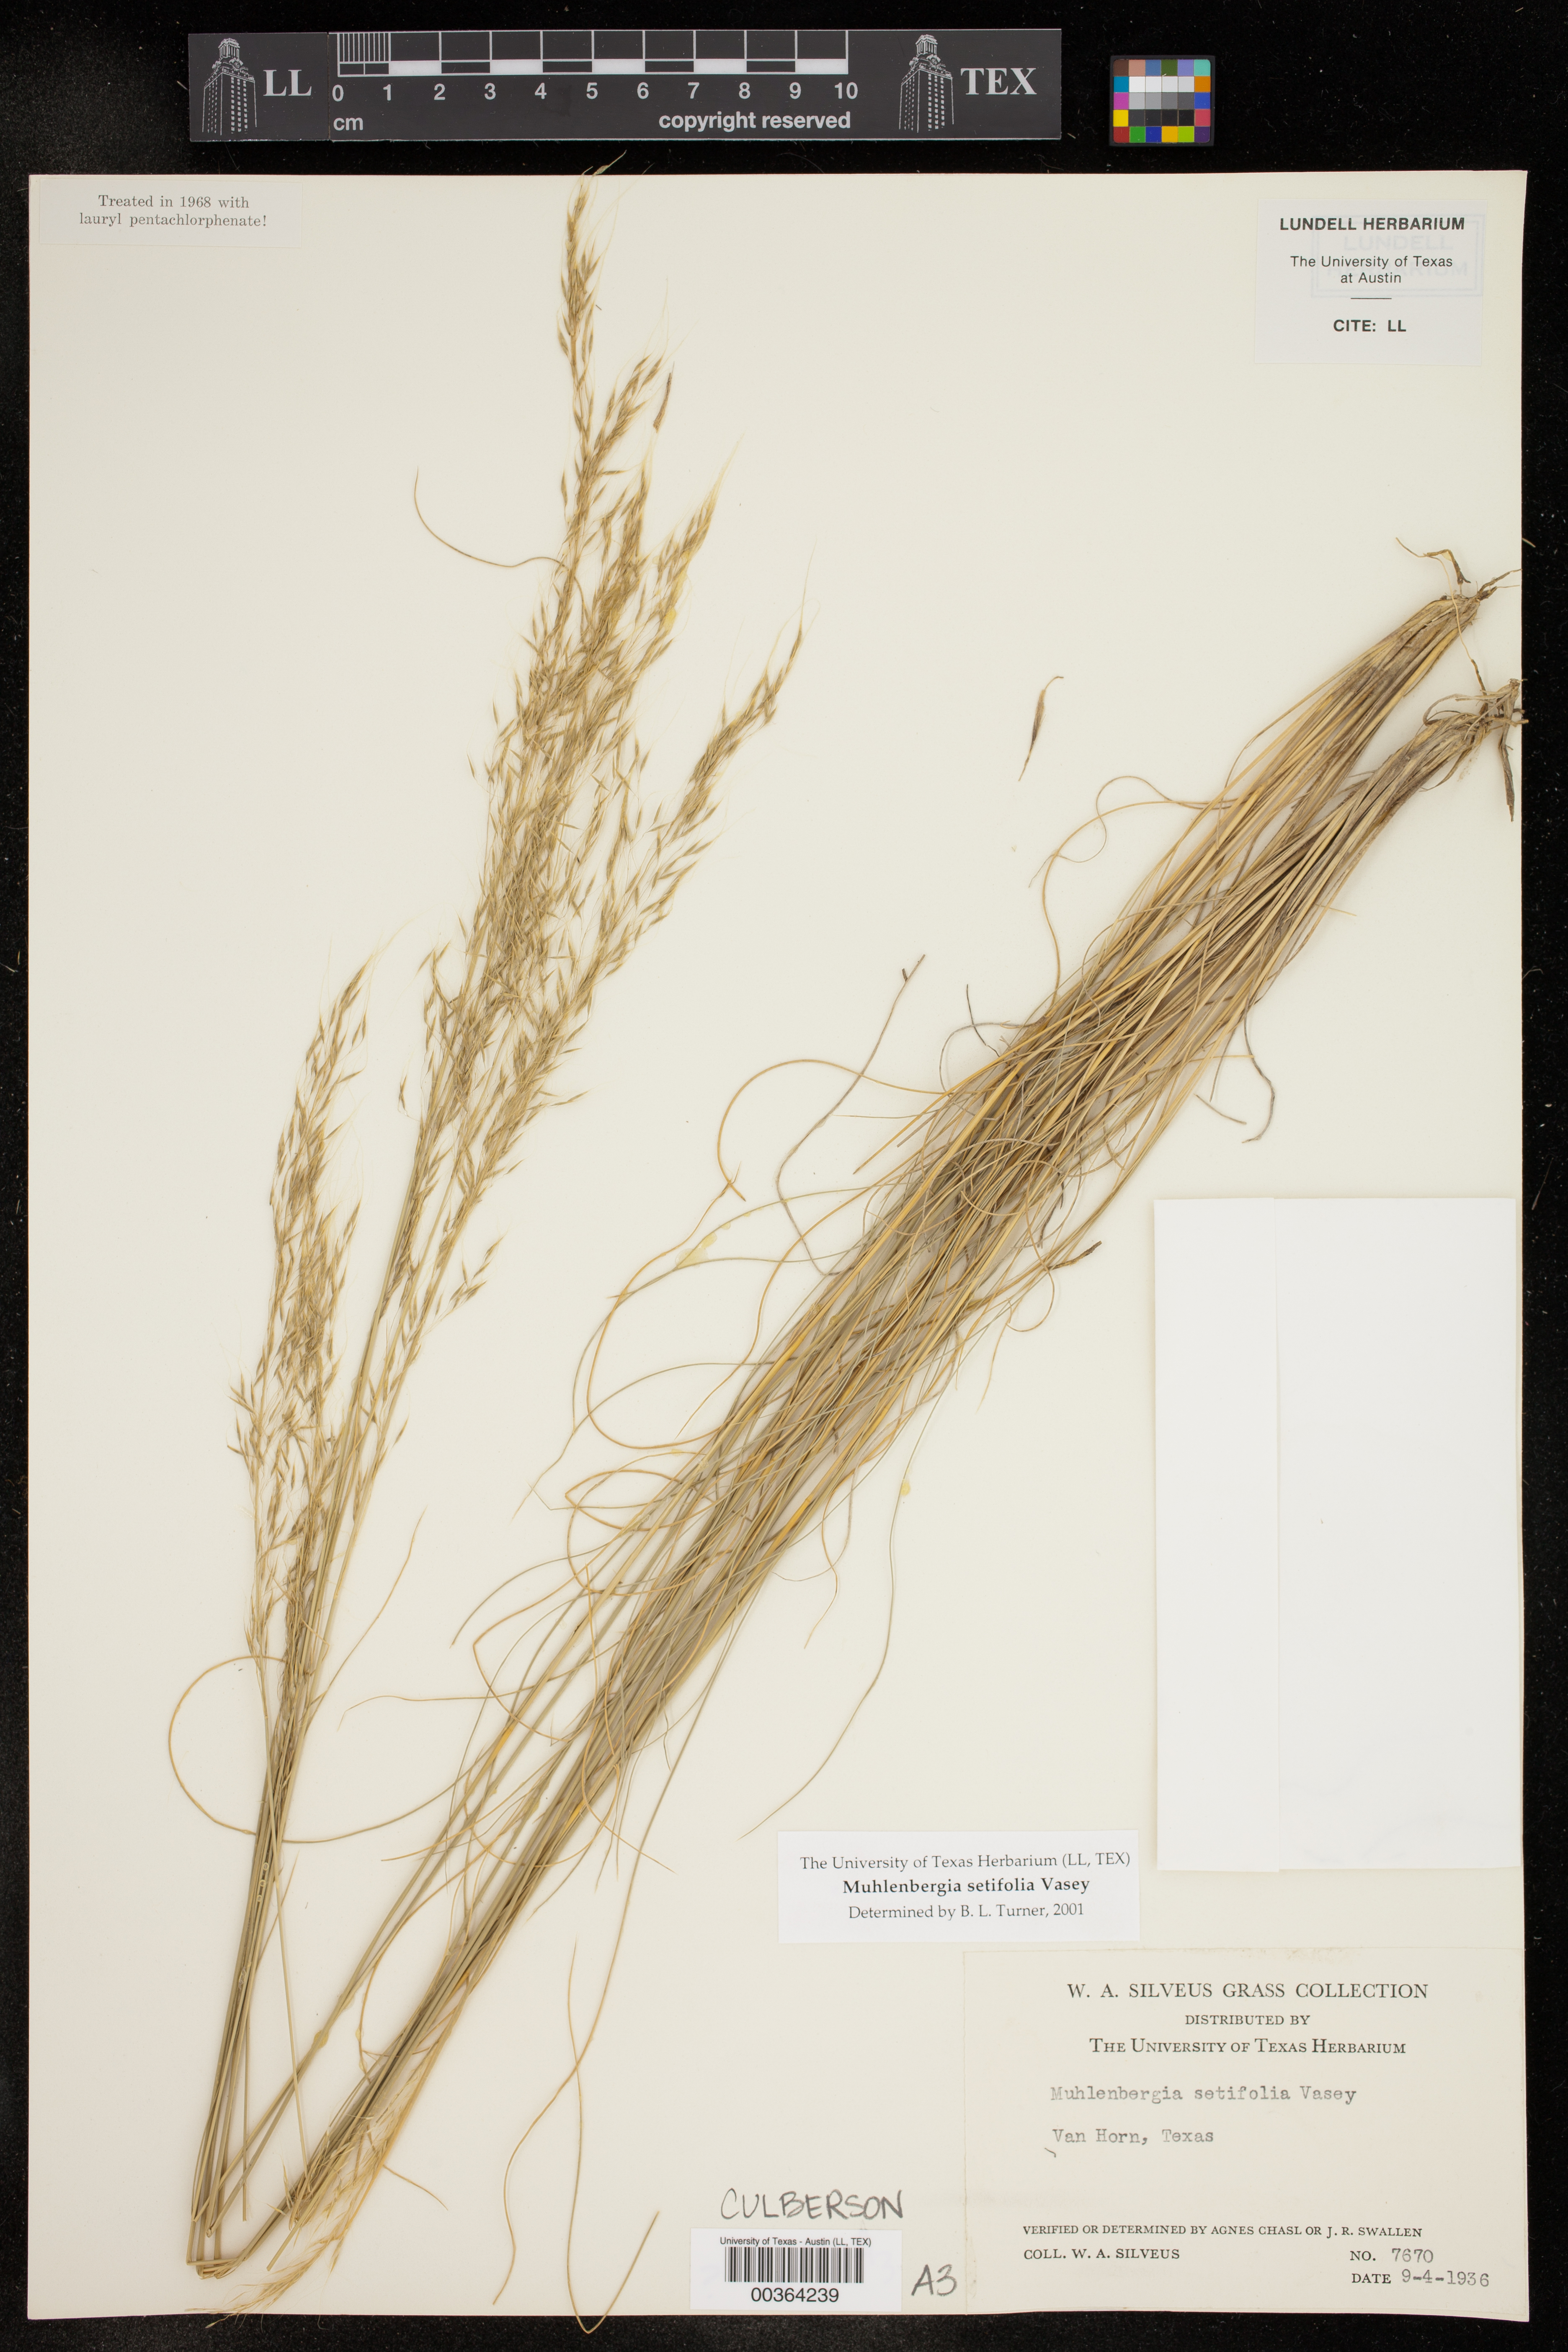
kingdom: Plantae
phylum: Tracheophyta
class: Liliopsida
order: Poales
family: Poaceae
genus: Muhlenbergia
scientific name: Muhlenbergia setifolia
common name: Curly-leaf muhly
